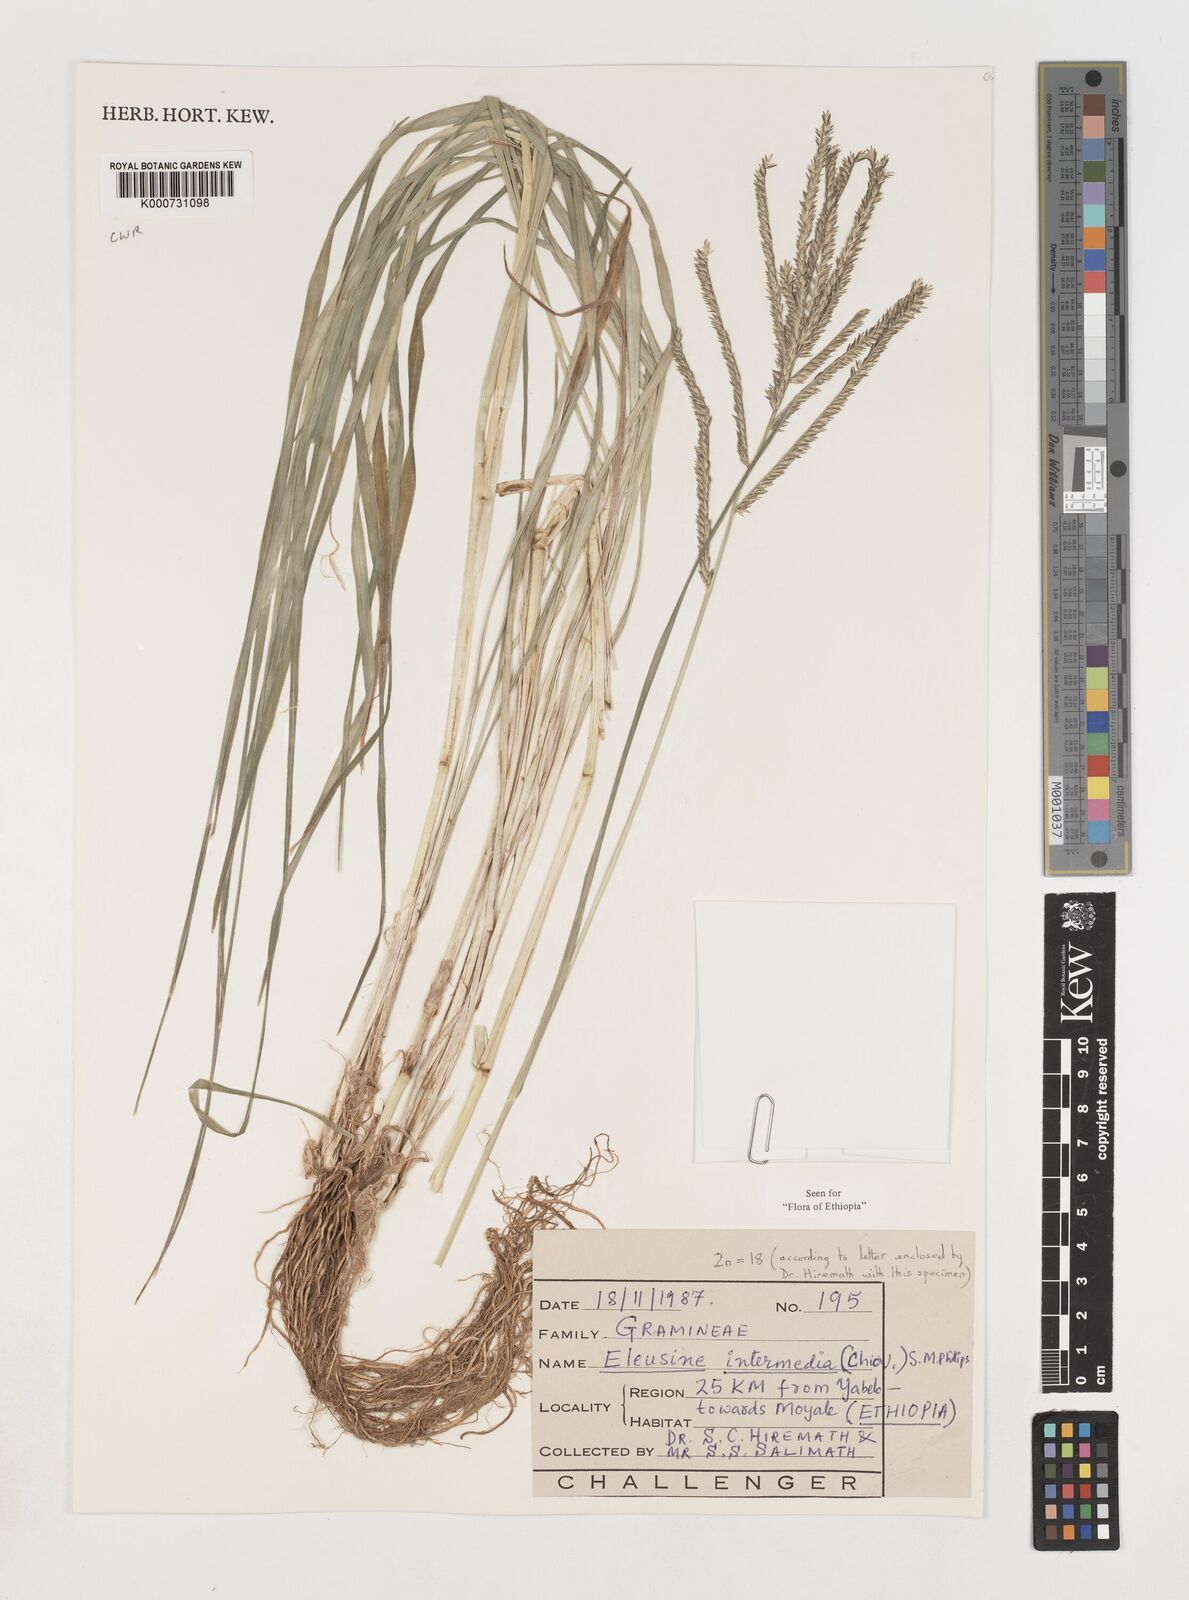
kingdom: Plantae
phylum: Tracheophyta
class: Liliopsida
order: Poales
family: Poaceae
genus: Eleusine
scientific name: Eleusine intermedia
